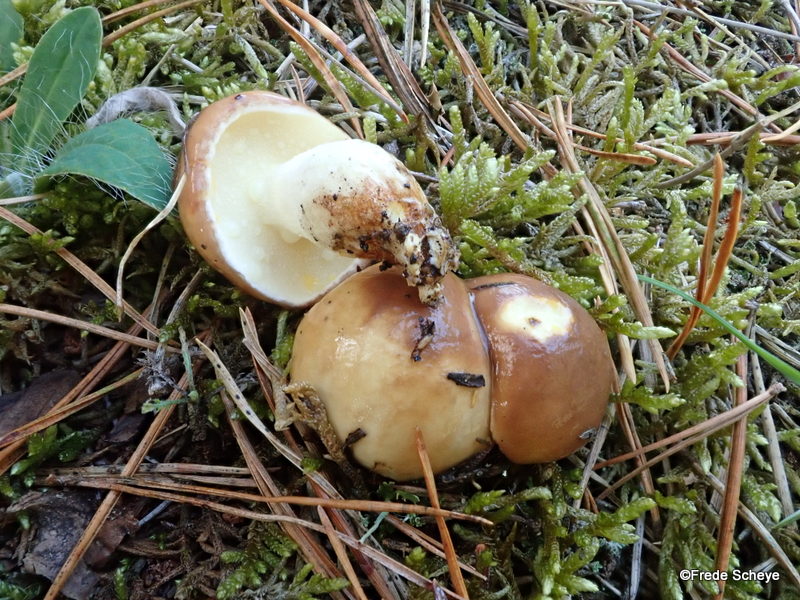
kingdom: Fungi
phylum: Basidiomycota
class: Agaricomycetes
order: Boletales
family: Suillaceae
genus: Suillus
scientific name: Suillus granulatus
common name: kornet slimrørhat
